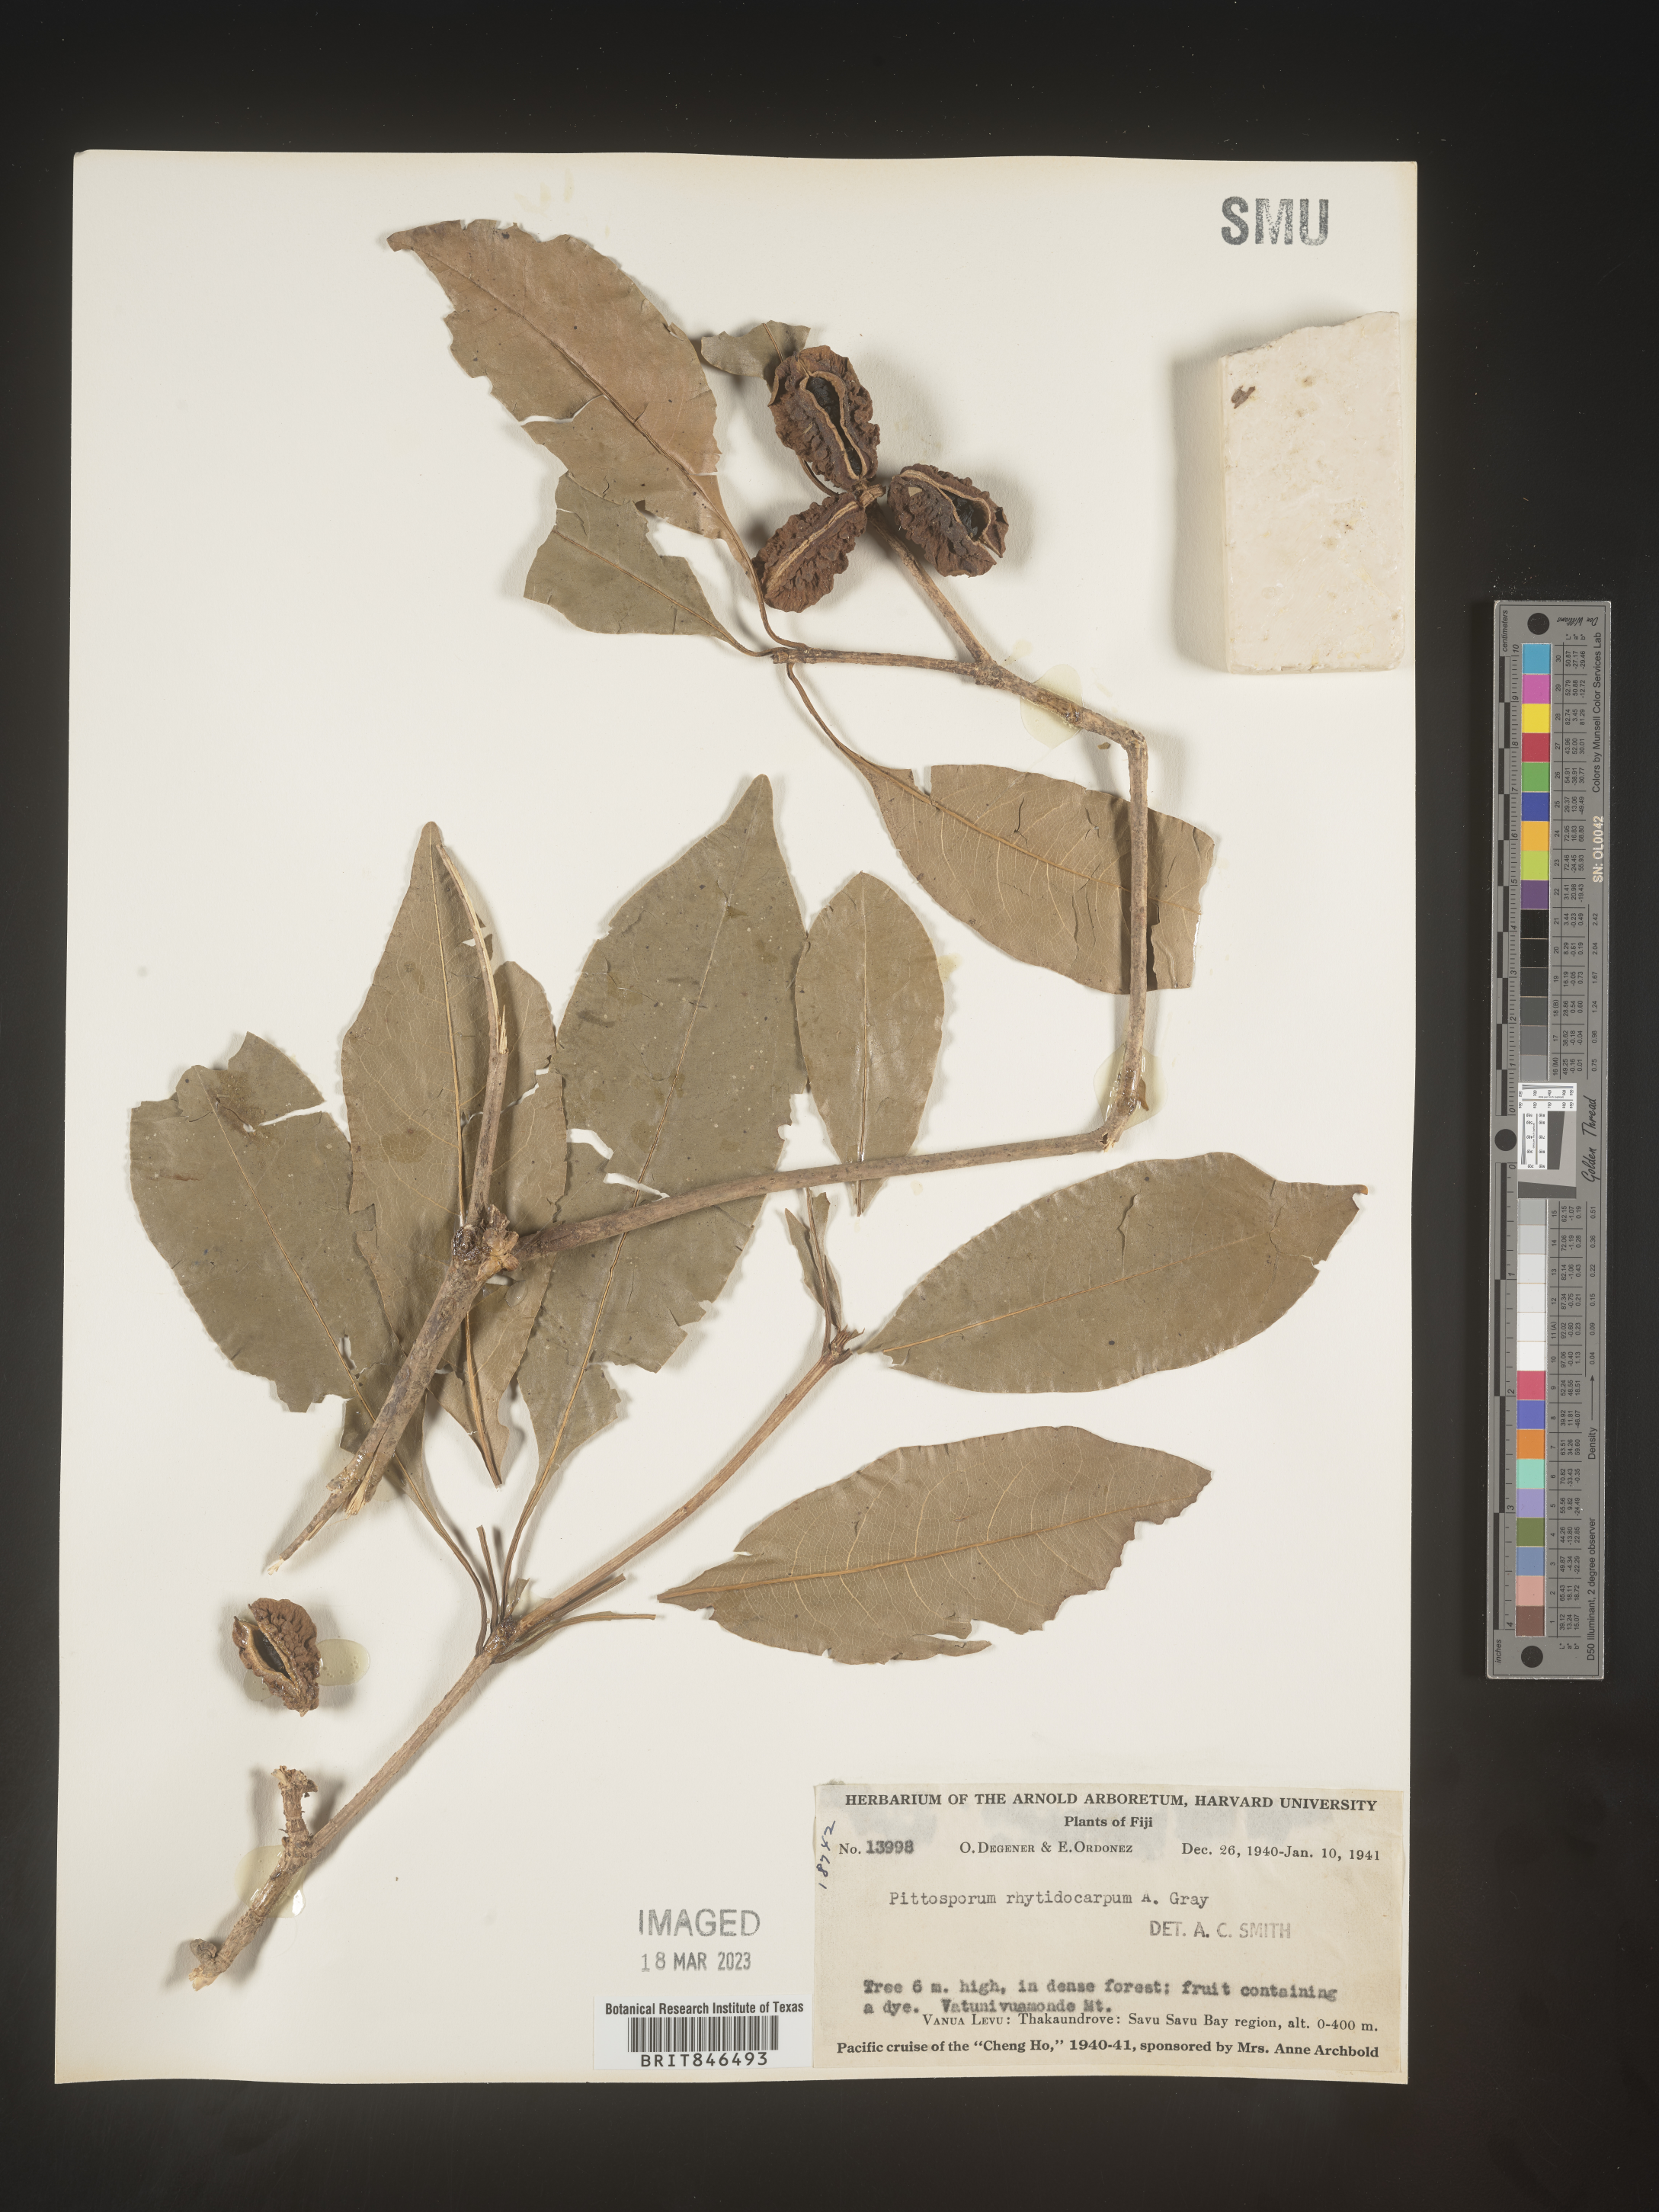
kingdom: Plantae
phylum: Tracheophyta
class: Magnoliopsida
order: Apiales
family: Pittosporaceae
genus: Pittosporum
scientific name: Pittosporum
